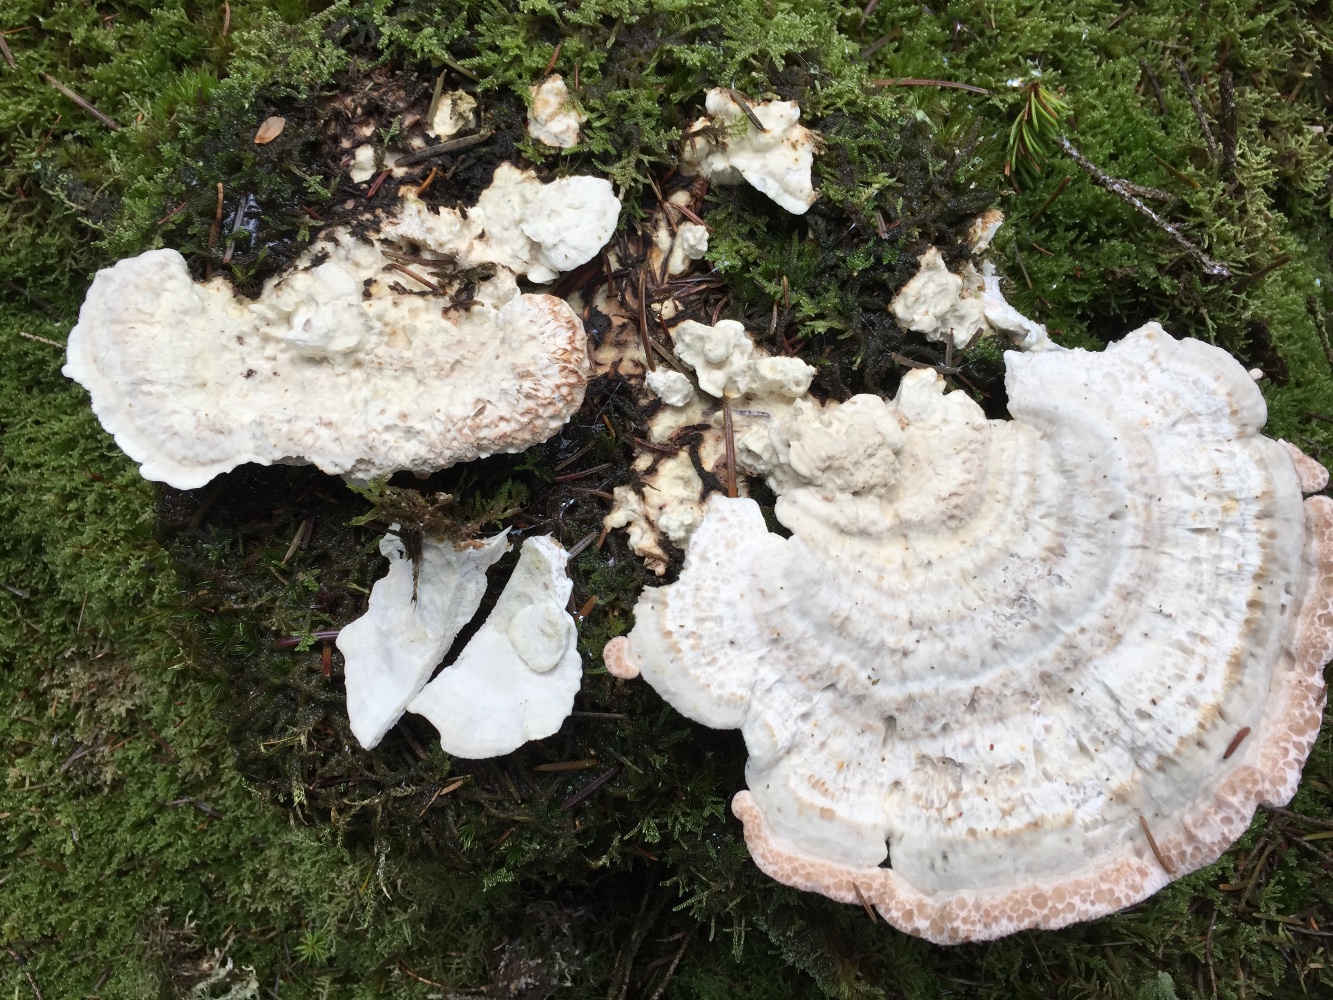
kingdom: Fungi
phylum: Basidiomycota
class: Agaricomycetes
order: Polyporales
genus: Calcipostia
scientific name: Calcipostia guttulata
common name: dråbe-kødporesvamp
